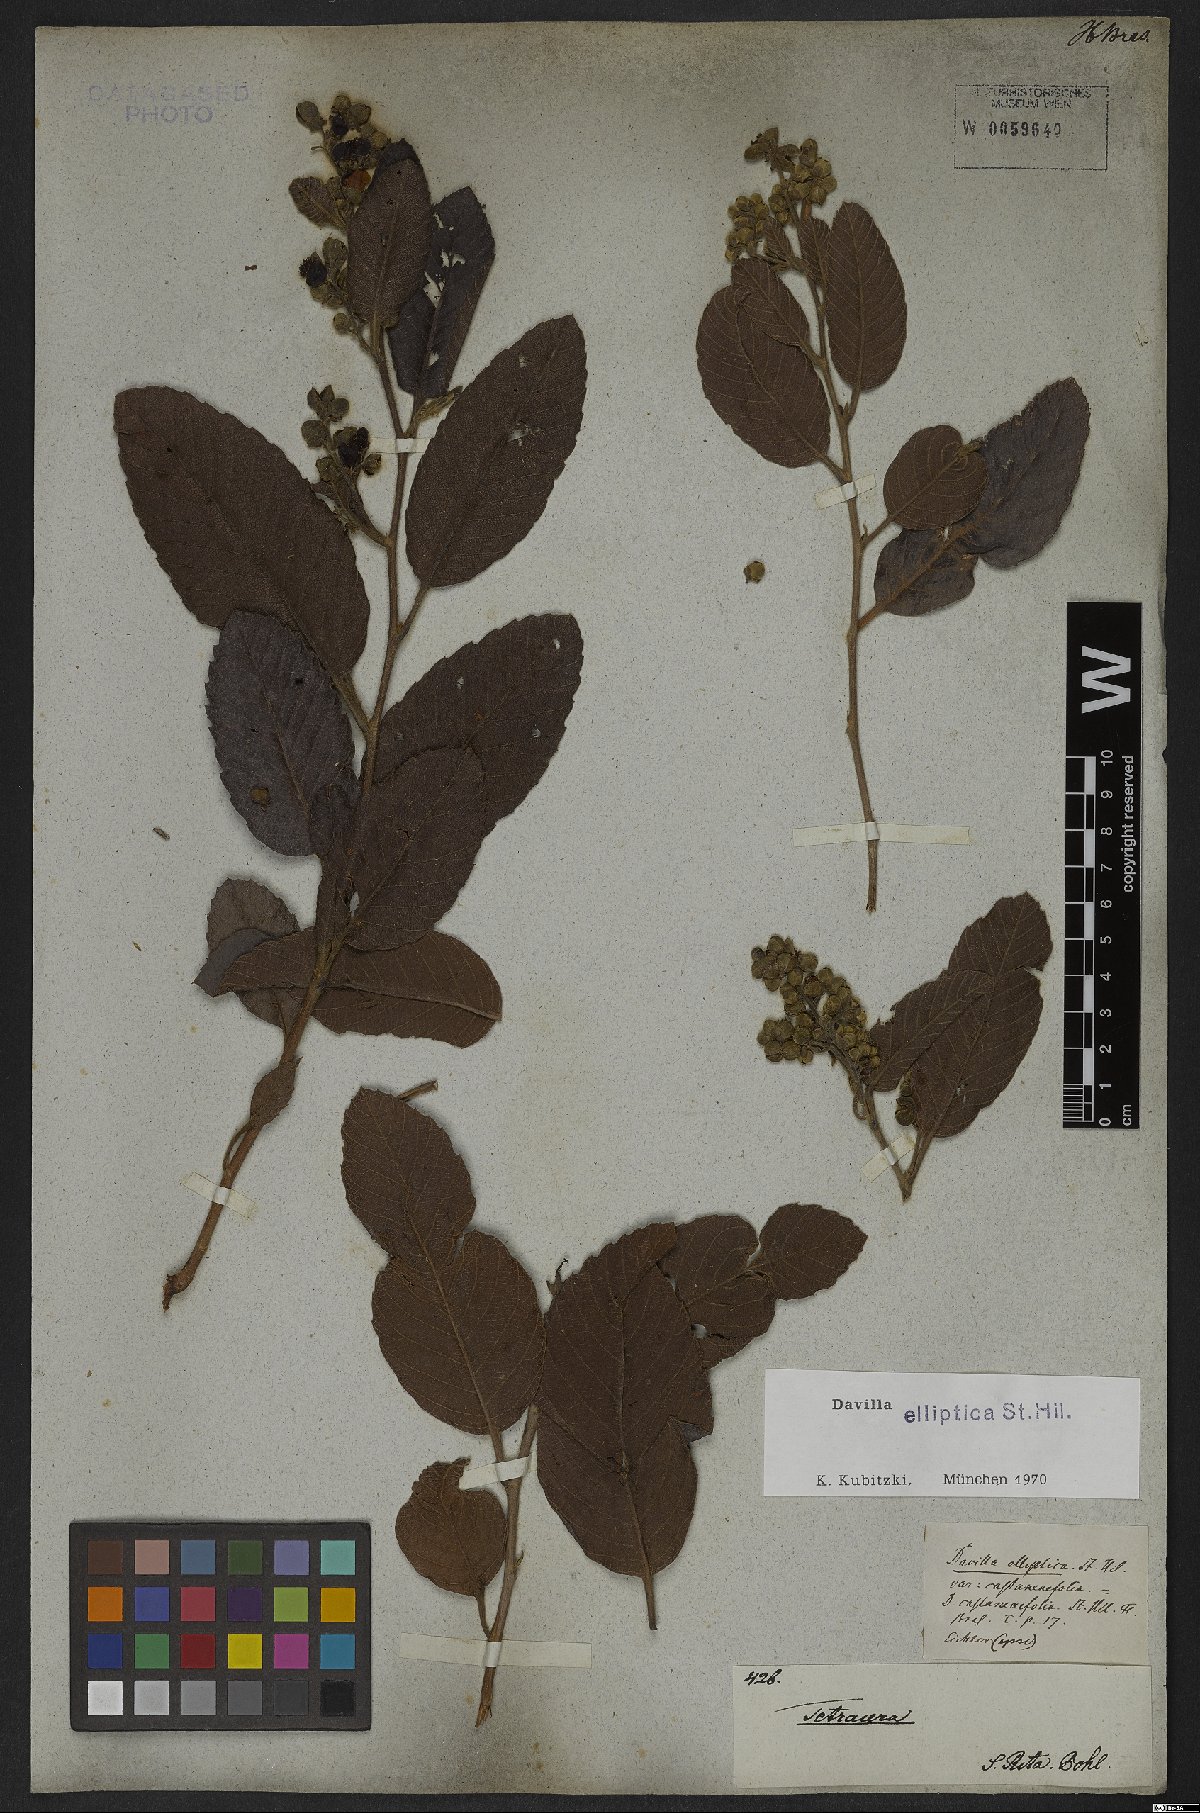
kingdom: Plantae
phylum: Tracheophyta
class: Magnoliopsida
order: Dilleniales
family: Dilleniaceae
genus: Davilla
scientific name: Davilla elliptica
